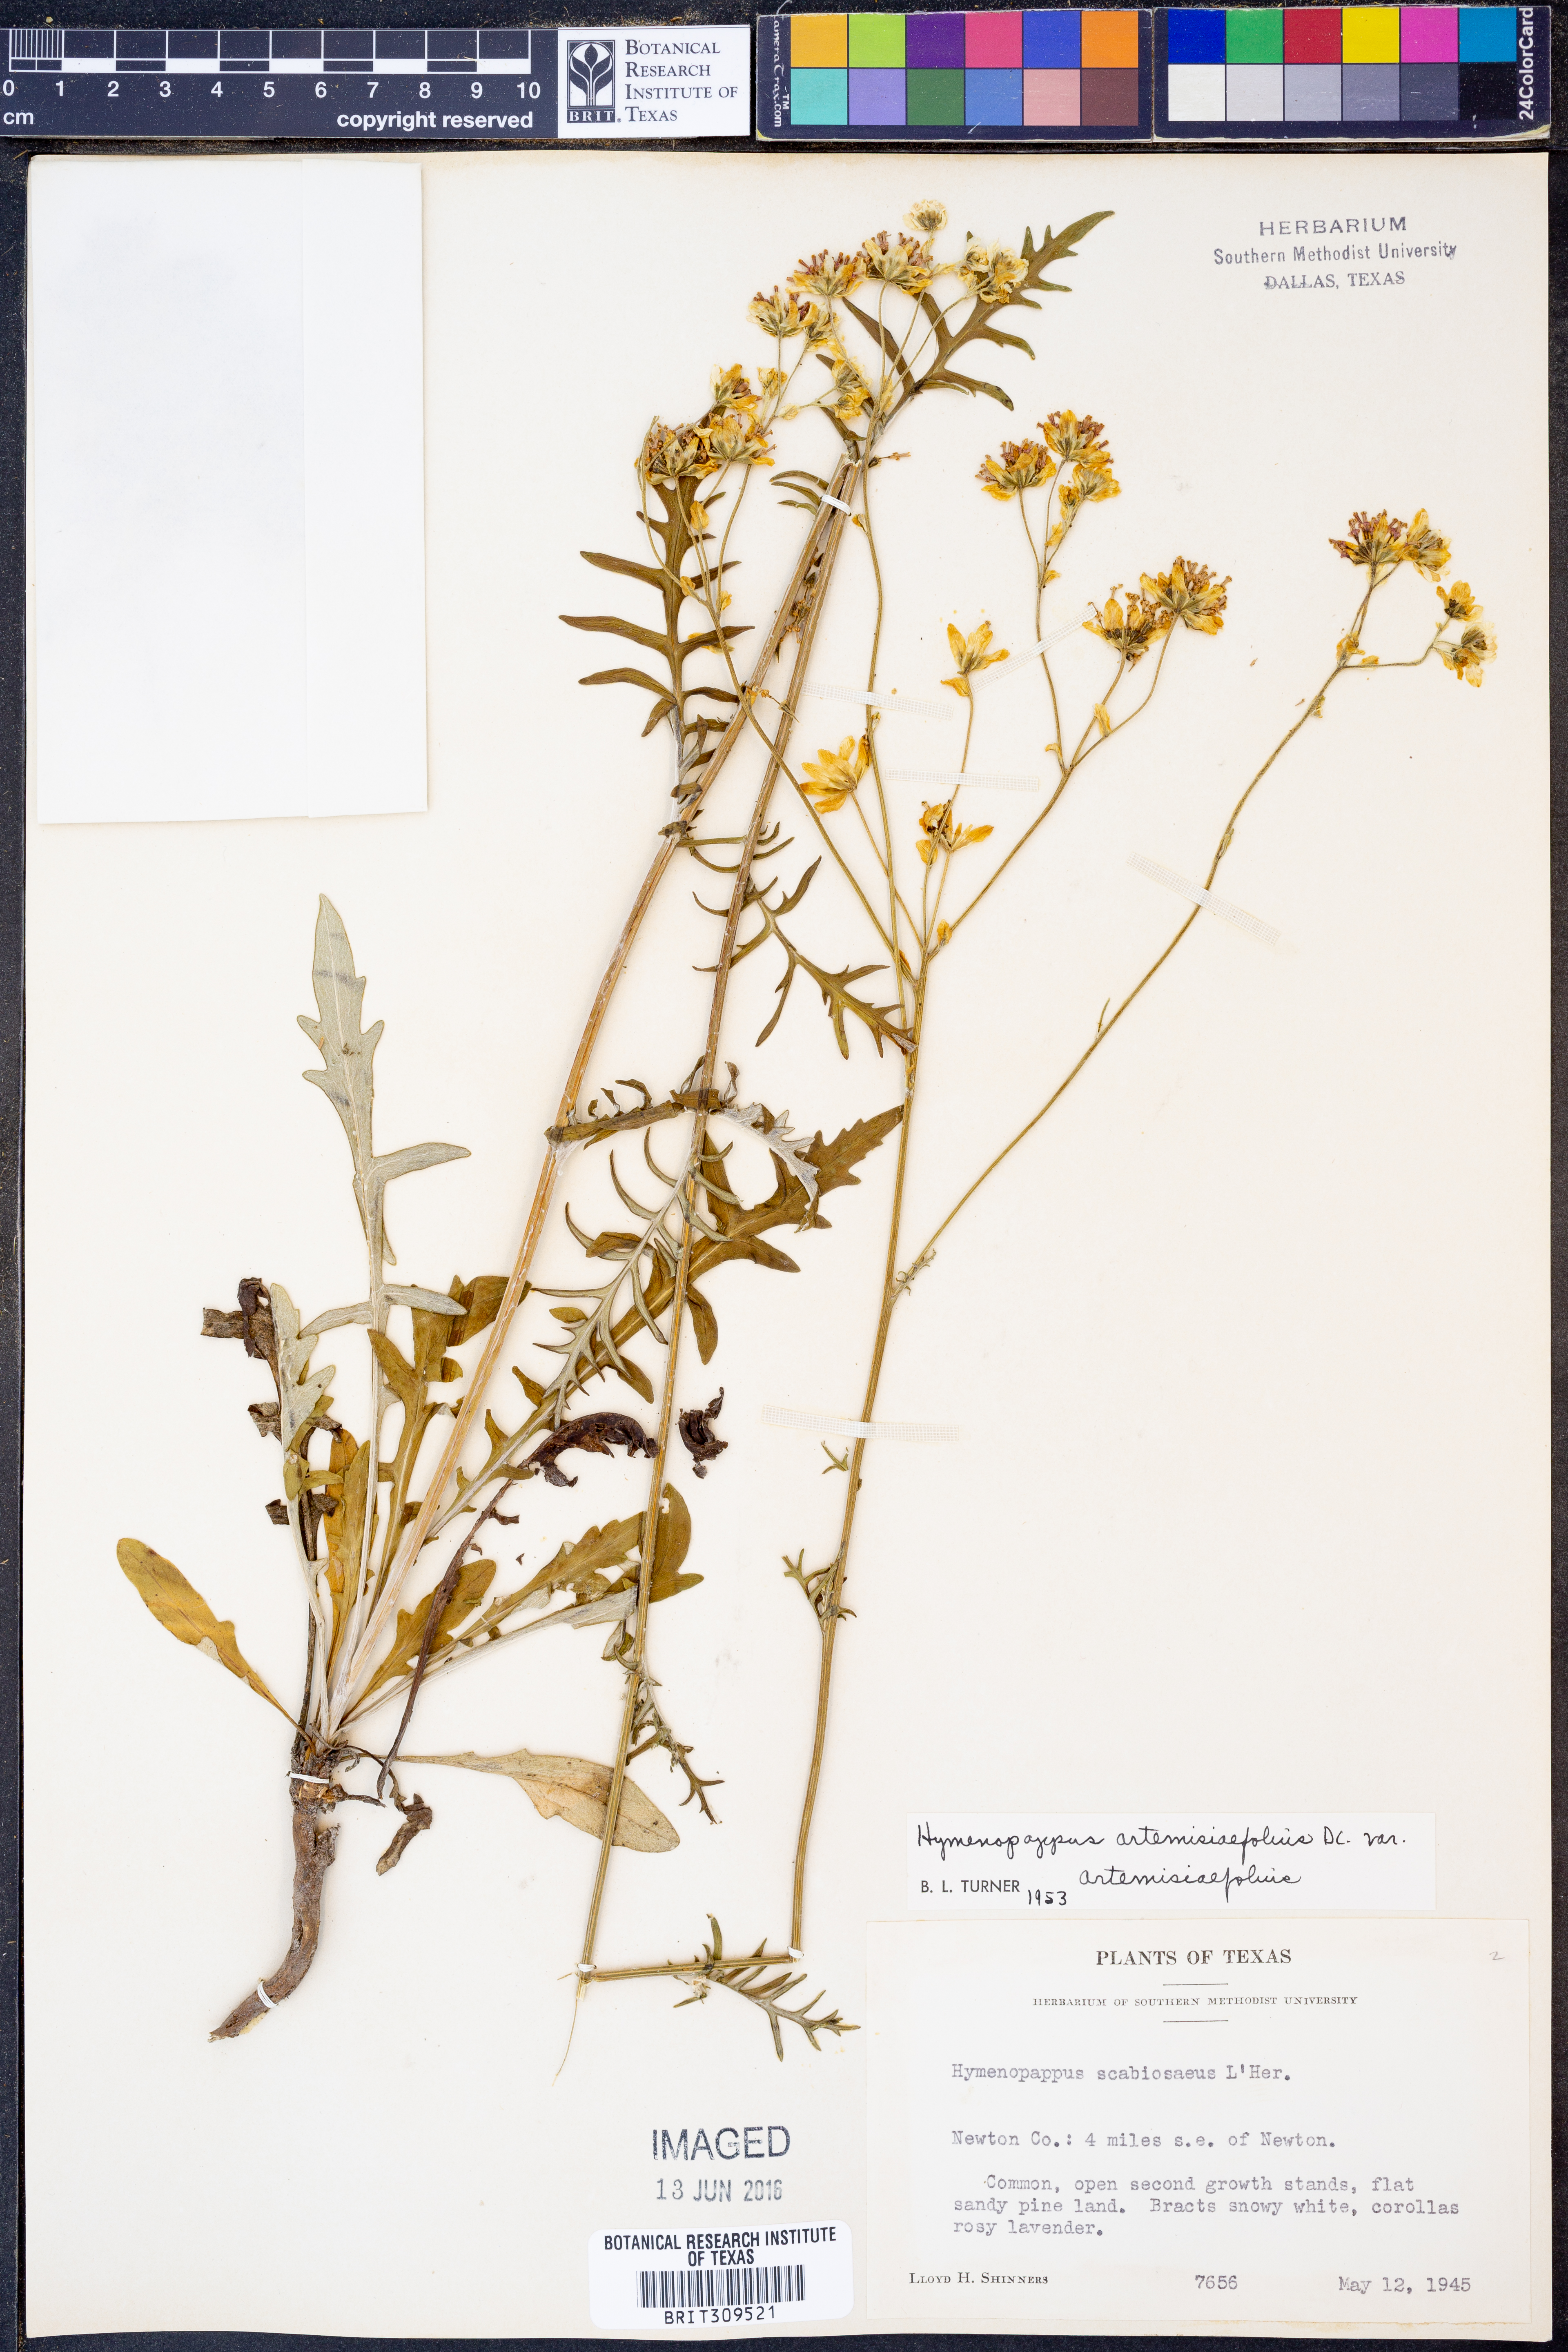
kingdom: Plantae
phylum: Tracheophyta
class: Magnoliopsida
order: Asterales
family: Asteraceae
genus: Hymenopappus
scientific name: Hymenopappus artemisiifolius
